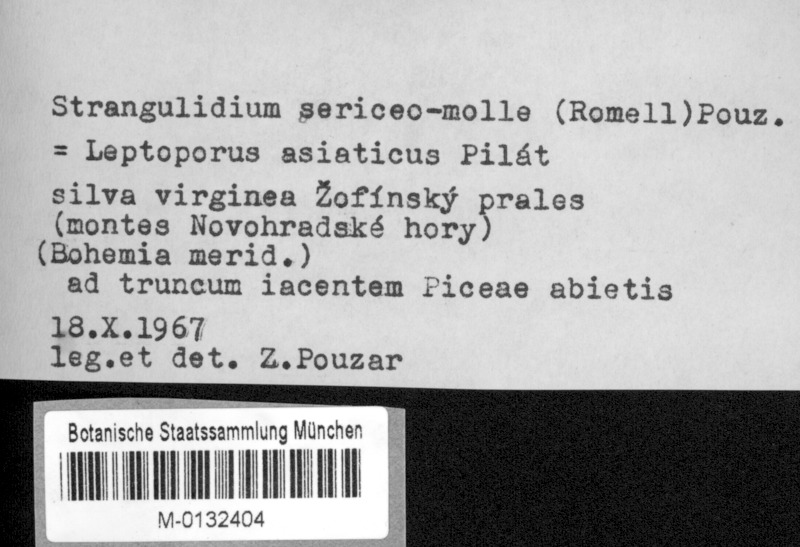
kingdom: Fungi
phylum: Basidiomycota
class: Agaricomycetes
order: Polyporales
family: Dacryobolaceae
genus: Postia
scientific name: Postia sericeomollis
